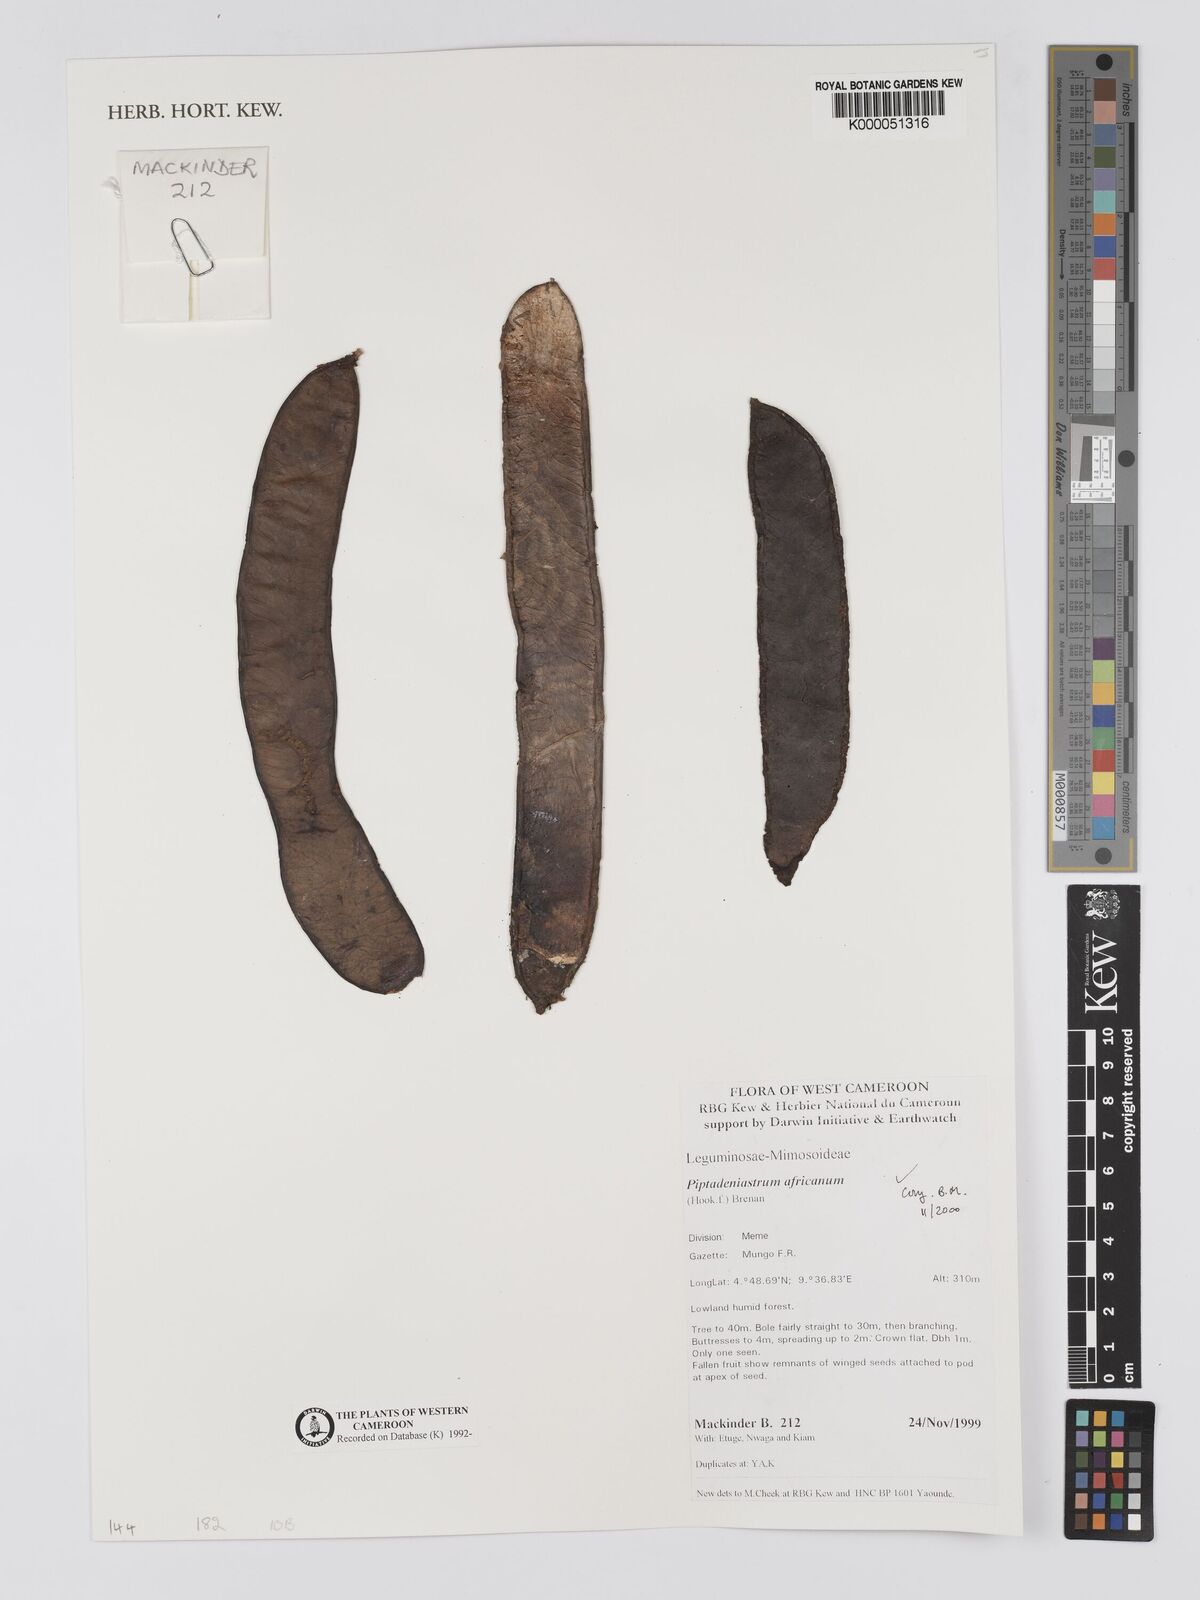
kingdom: Plantae
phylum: Tracheophyta
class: Magnoliopsida
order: Fabales
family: Fabaceae
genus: Piptadeniastrum
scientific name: Piptadeniastrum africanum
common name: African greenheart
